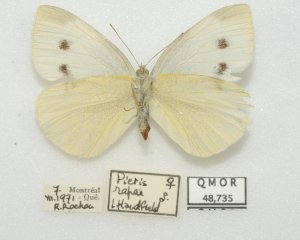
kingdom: Animalia
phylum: Arthropoda
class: Insecta
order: Lepidoptera
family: Pieridae
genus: Pieris
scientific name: Pieris rapae
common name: Cabbage White
